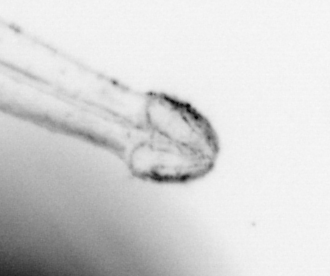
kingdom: Animalia
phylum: Chaetognatha
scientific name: Chaetognatha
